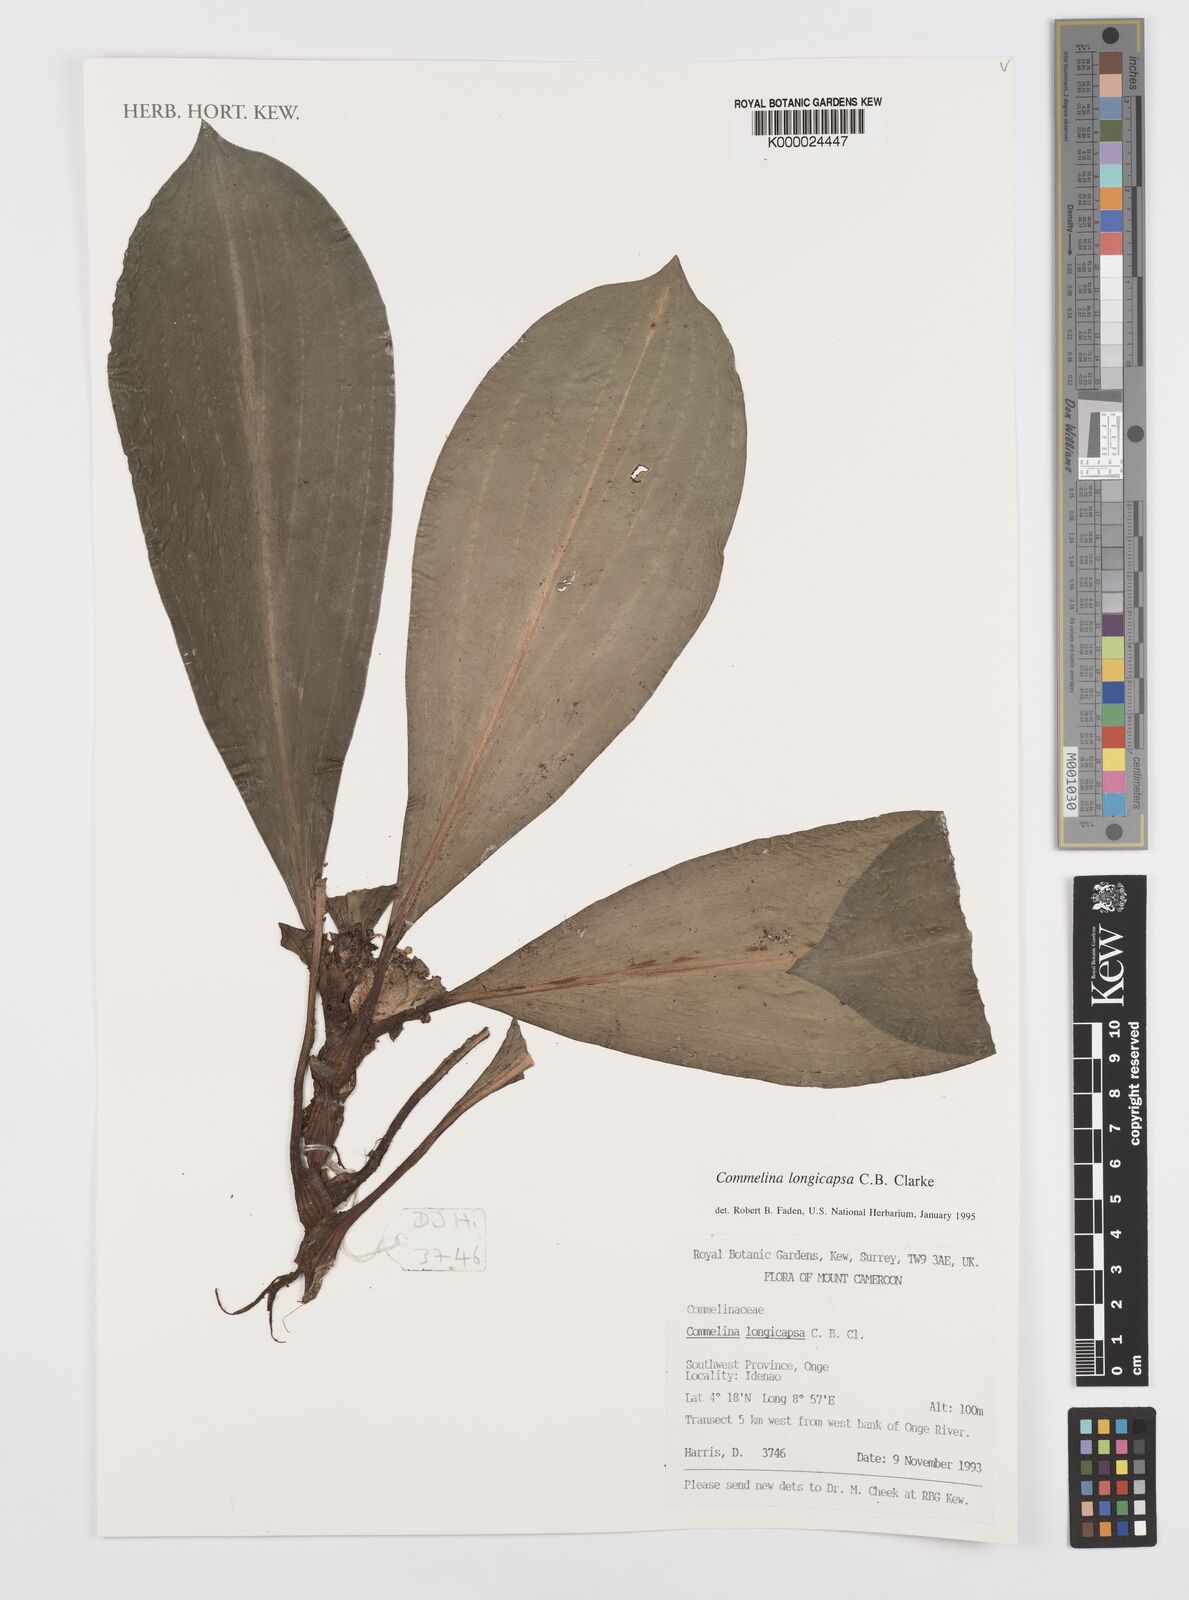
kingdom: Plantae
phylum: Tracheophyta
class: Liliopsida
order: Commelinales
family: Commelinaceae
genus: Commelina
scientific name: Commelina longicapsa
